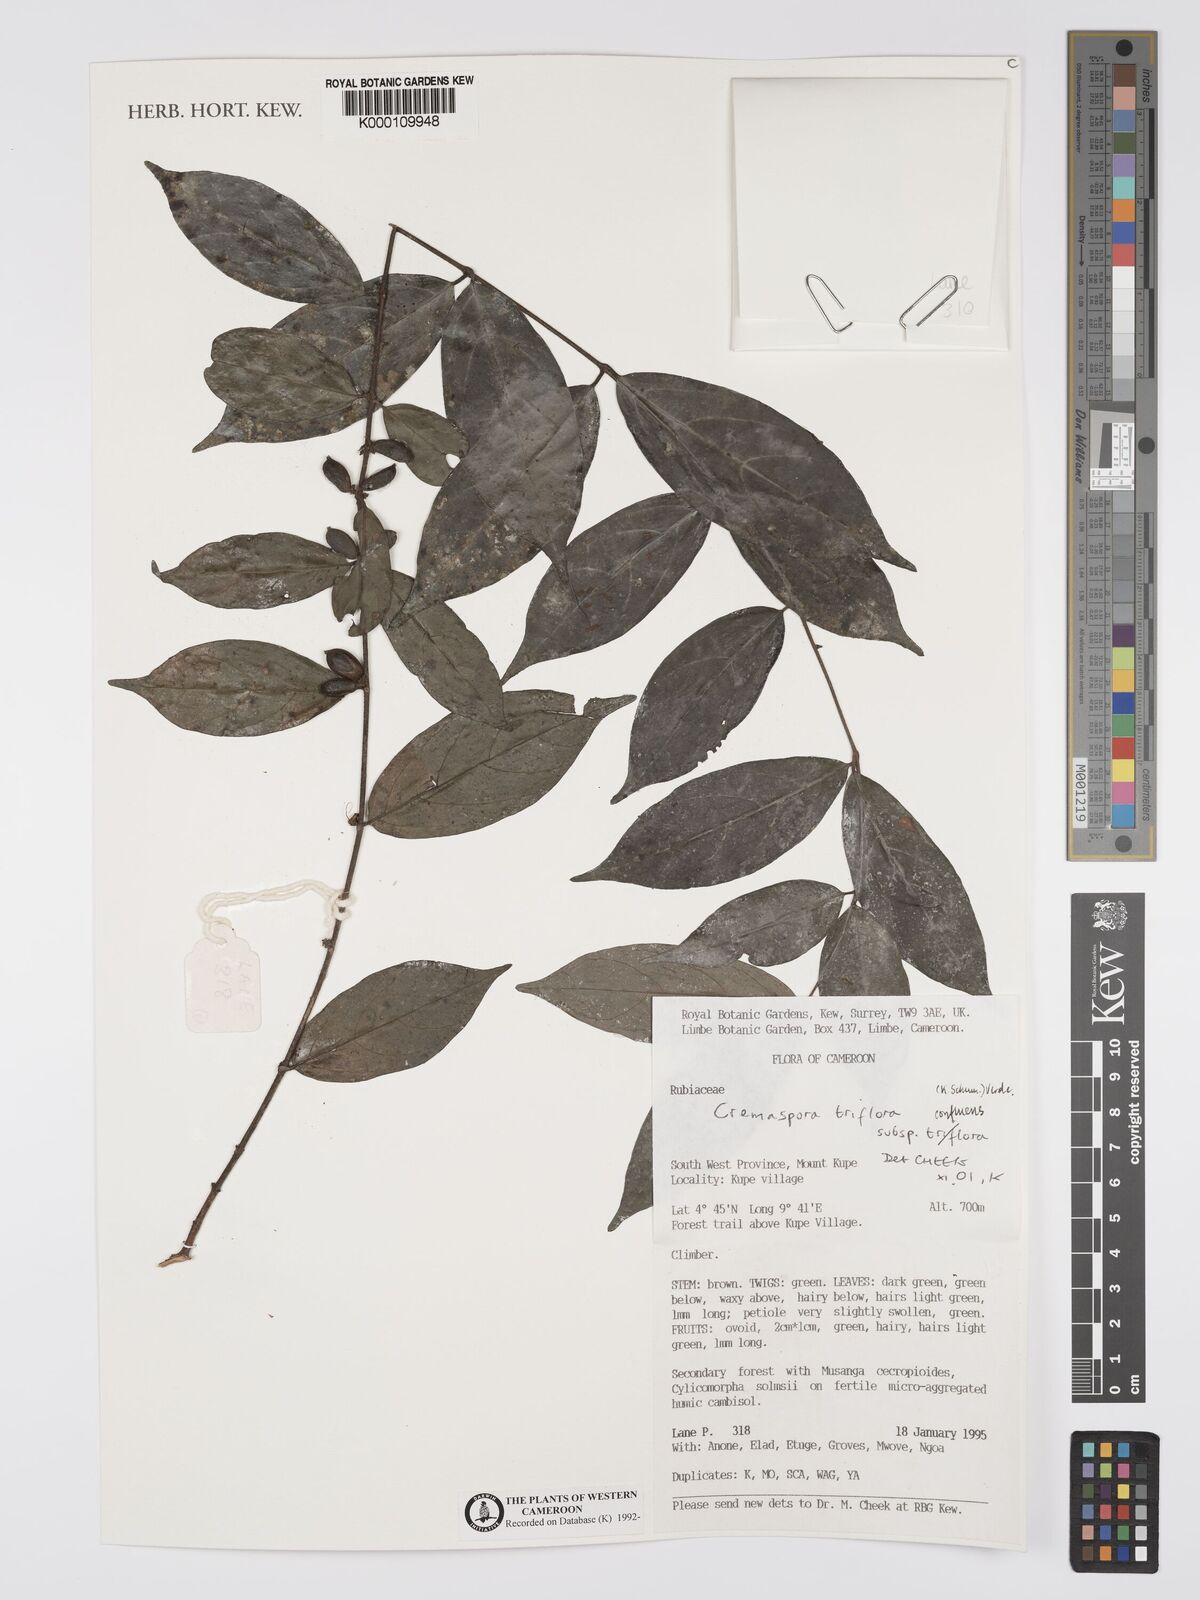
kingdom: Plantae
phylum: Tracheophyta
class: Magnoliopsida
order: Gentianales
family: Rubiaceae
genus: Cremaspora
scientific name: Cremaspora triflora
